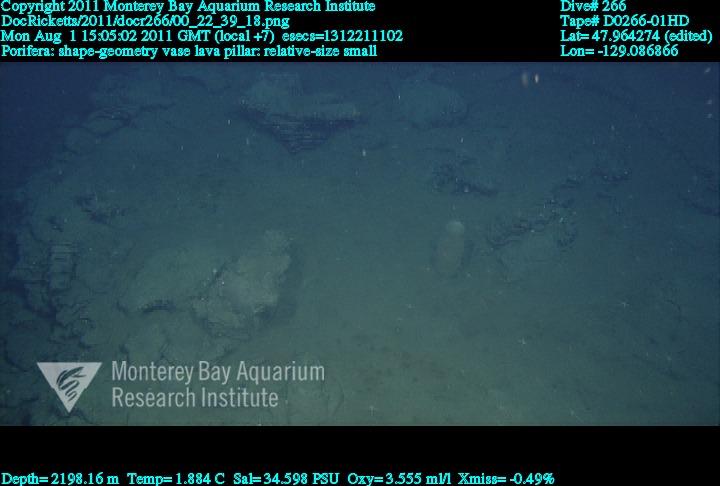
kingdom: Animalia
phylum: Porifera
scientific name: Porifera
